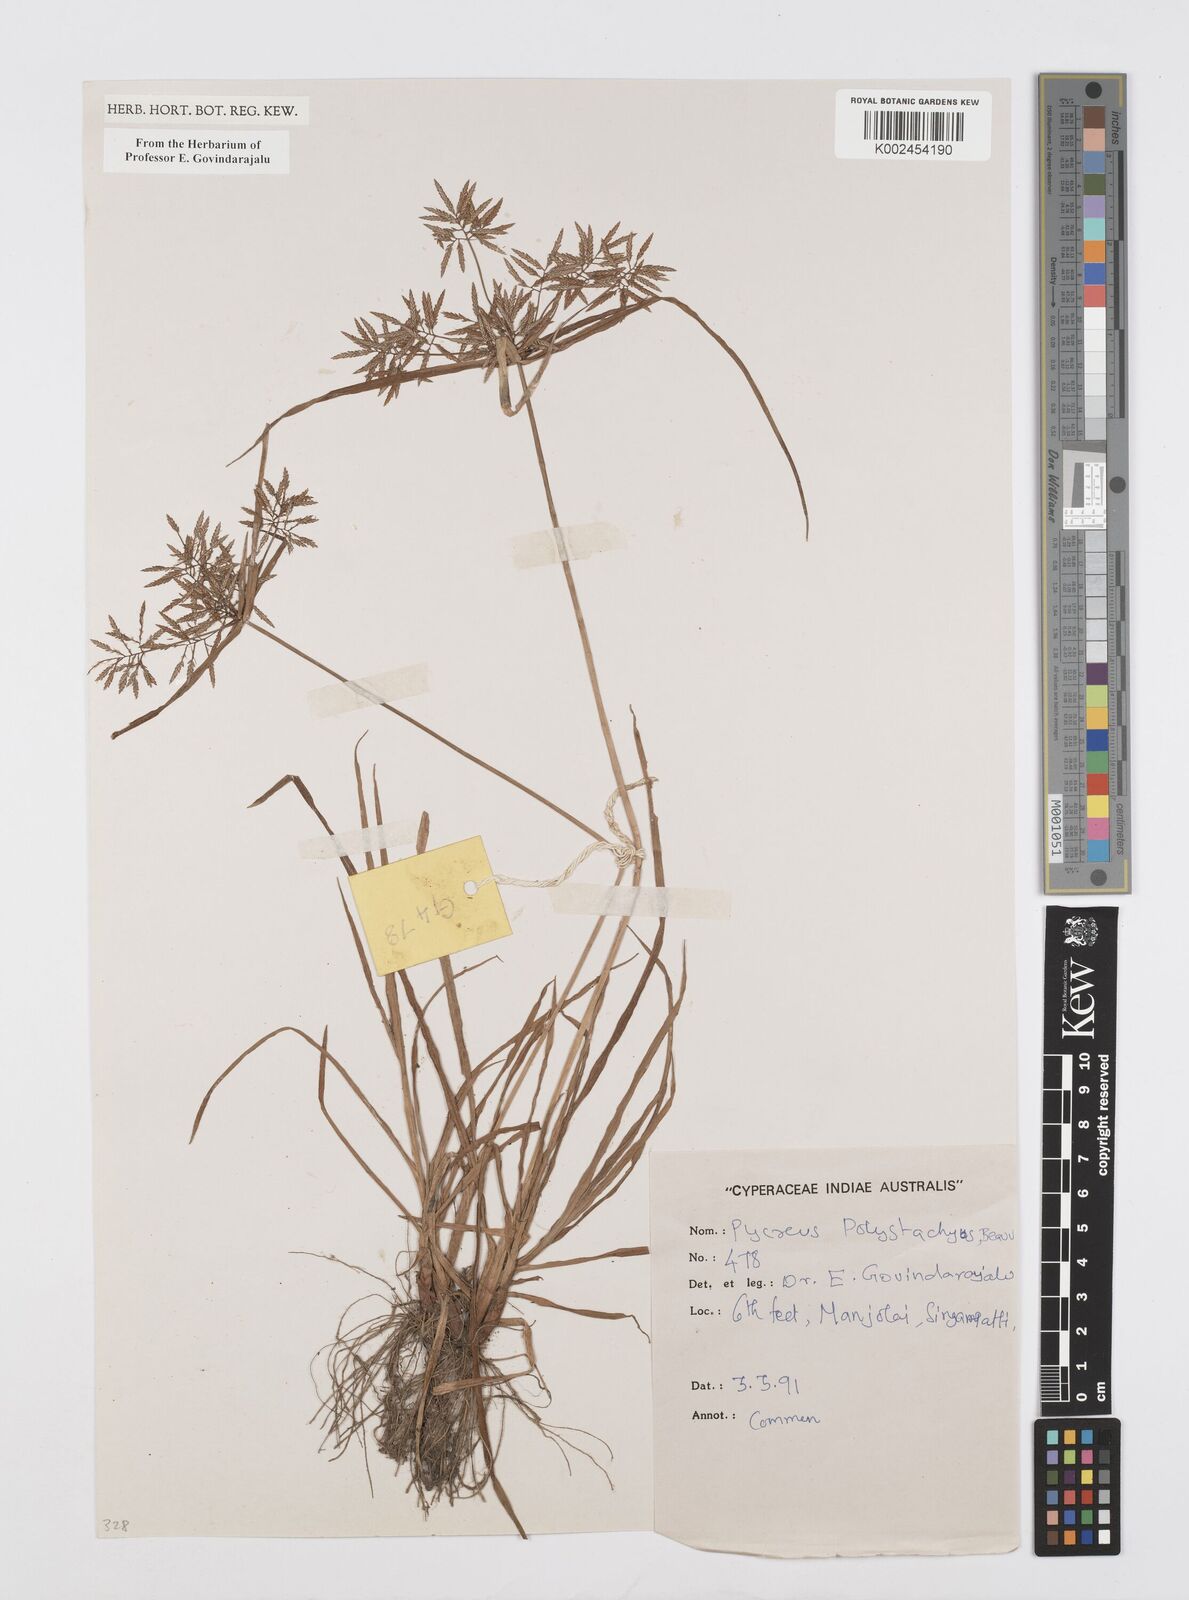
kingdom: Plantae
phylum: Tracheophyta
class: Liliopsida
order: Poales
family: Cyperaceae
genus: Cyperus
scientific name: Cyperus polystachyos
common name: Bunchy flat sedge
